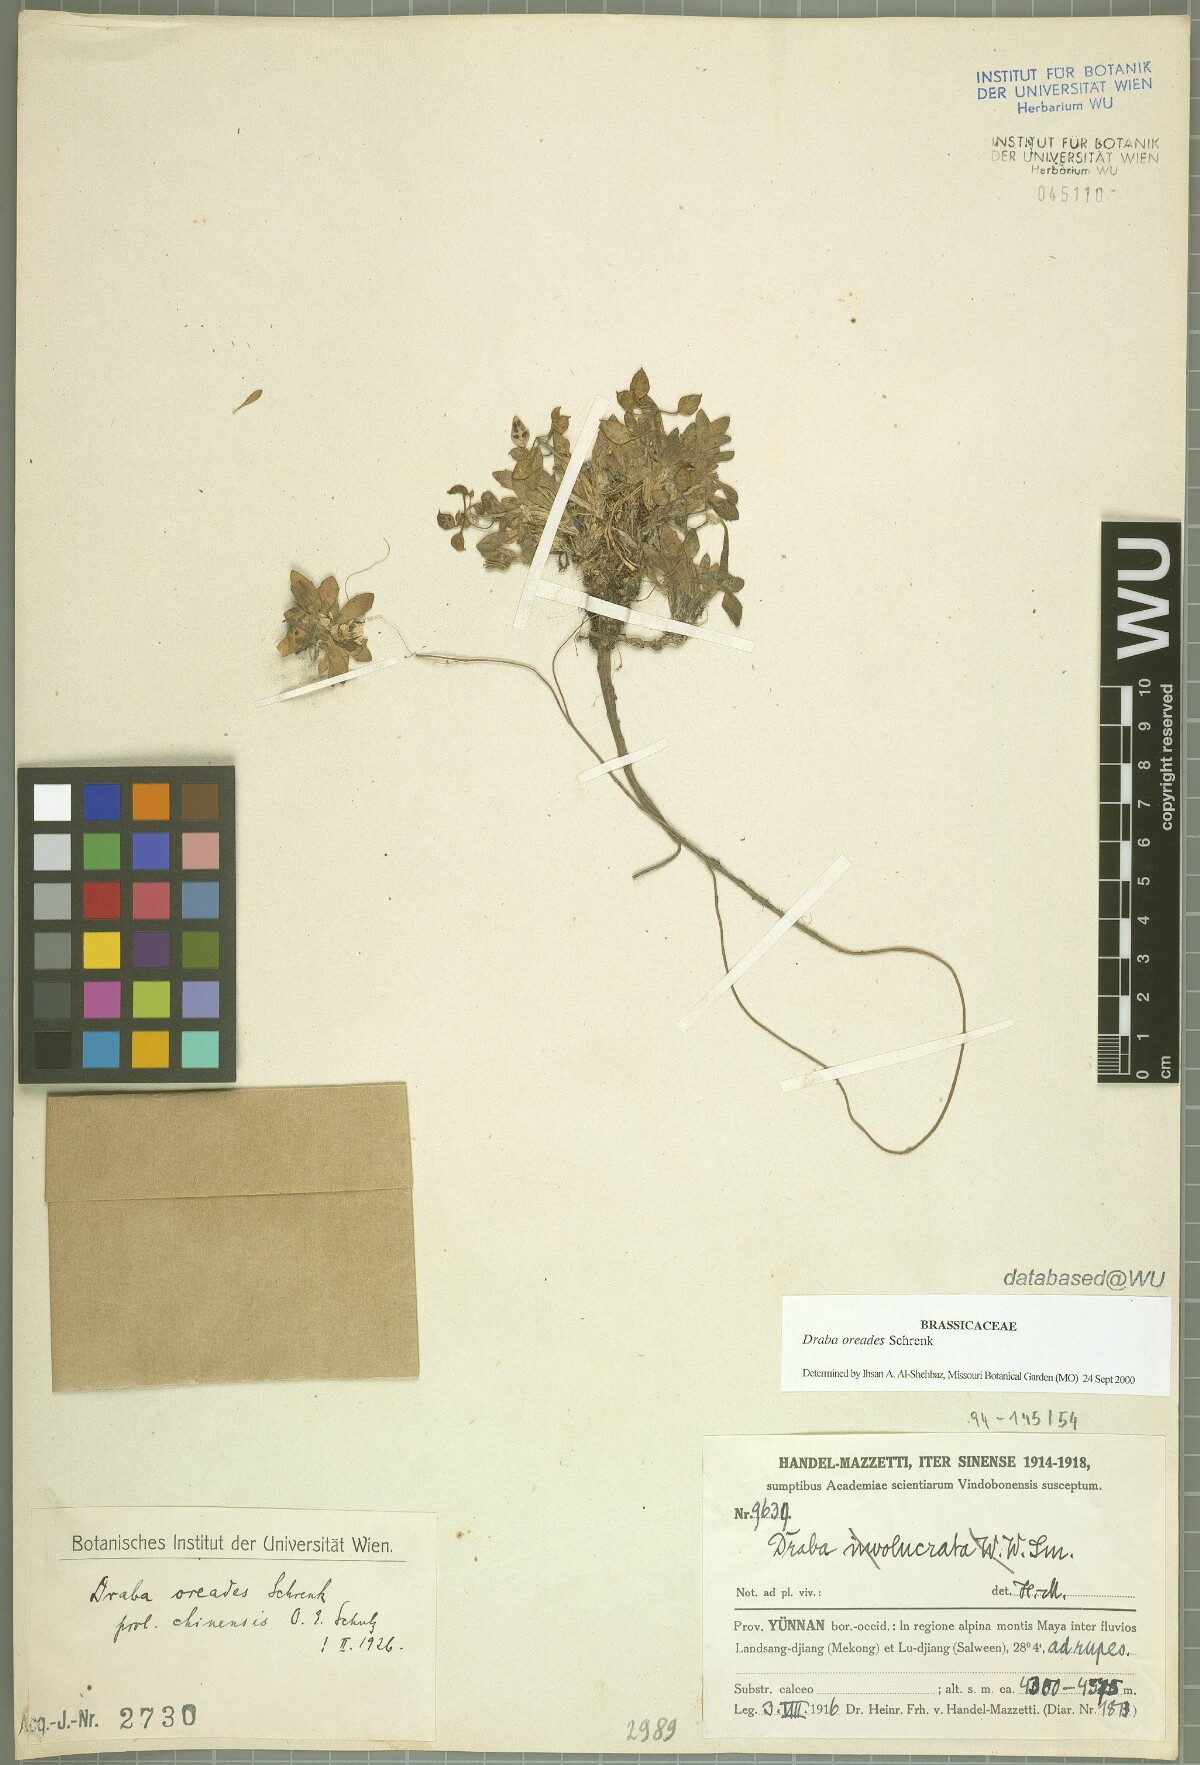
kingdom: Plantae
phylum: Tracheophyta
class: Magnoliopsida
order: Brassicales
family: Brassicaceae
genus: Draba
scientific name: Draba oreades
